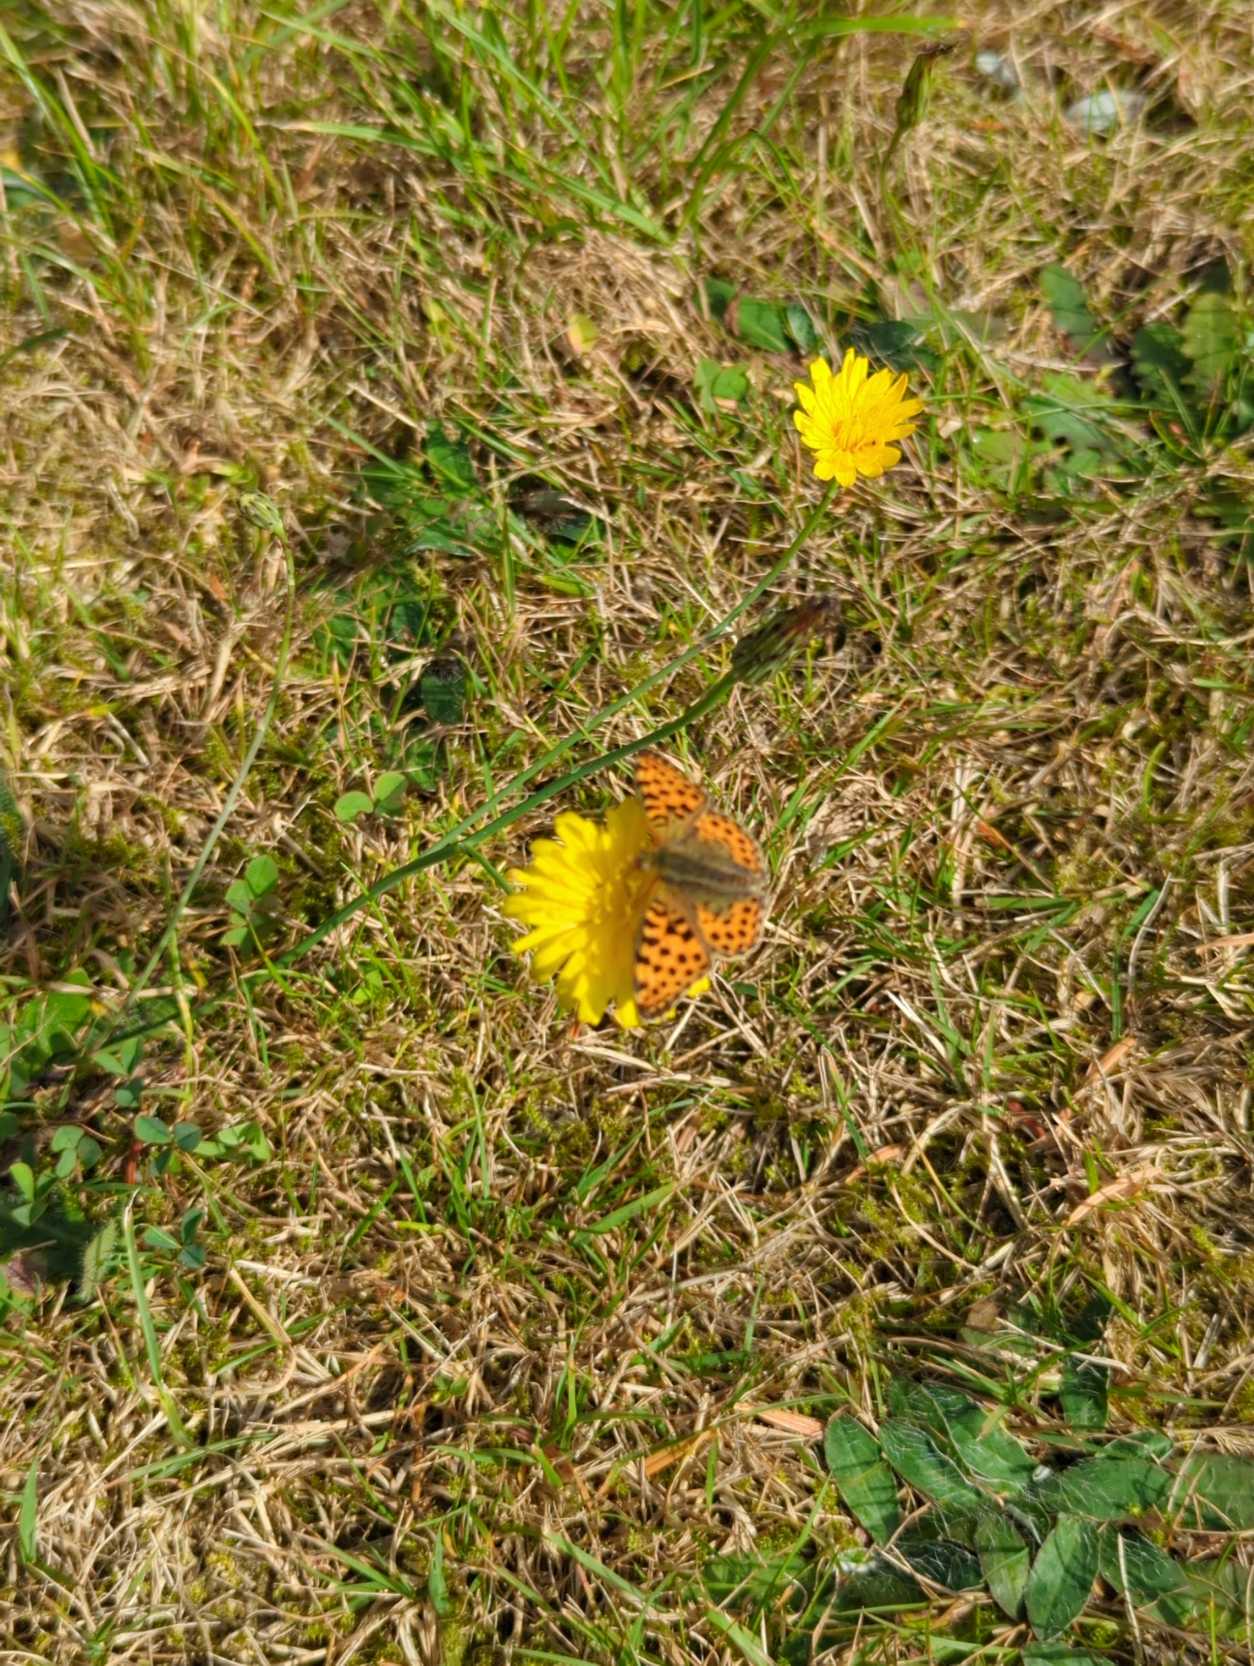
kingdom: Animalia
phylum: Arthropoda
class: Insecta
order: Lepidoptera
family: Nymphalidae
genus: Issoria
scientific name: Issoria lathonia
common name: Storplettet perlemorsommerfugl
